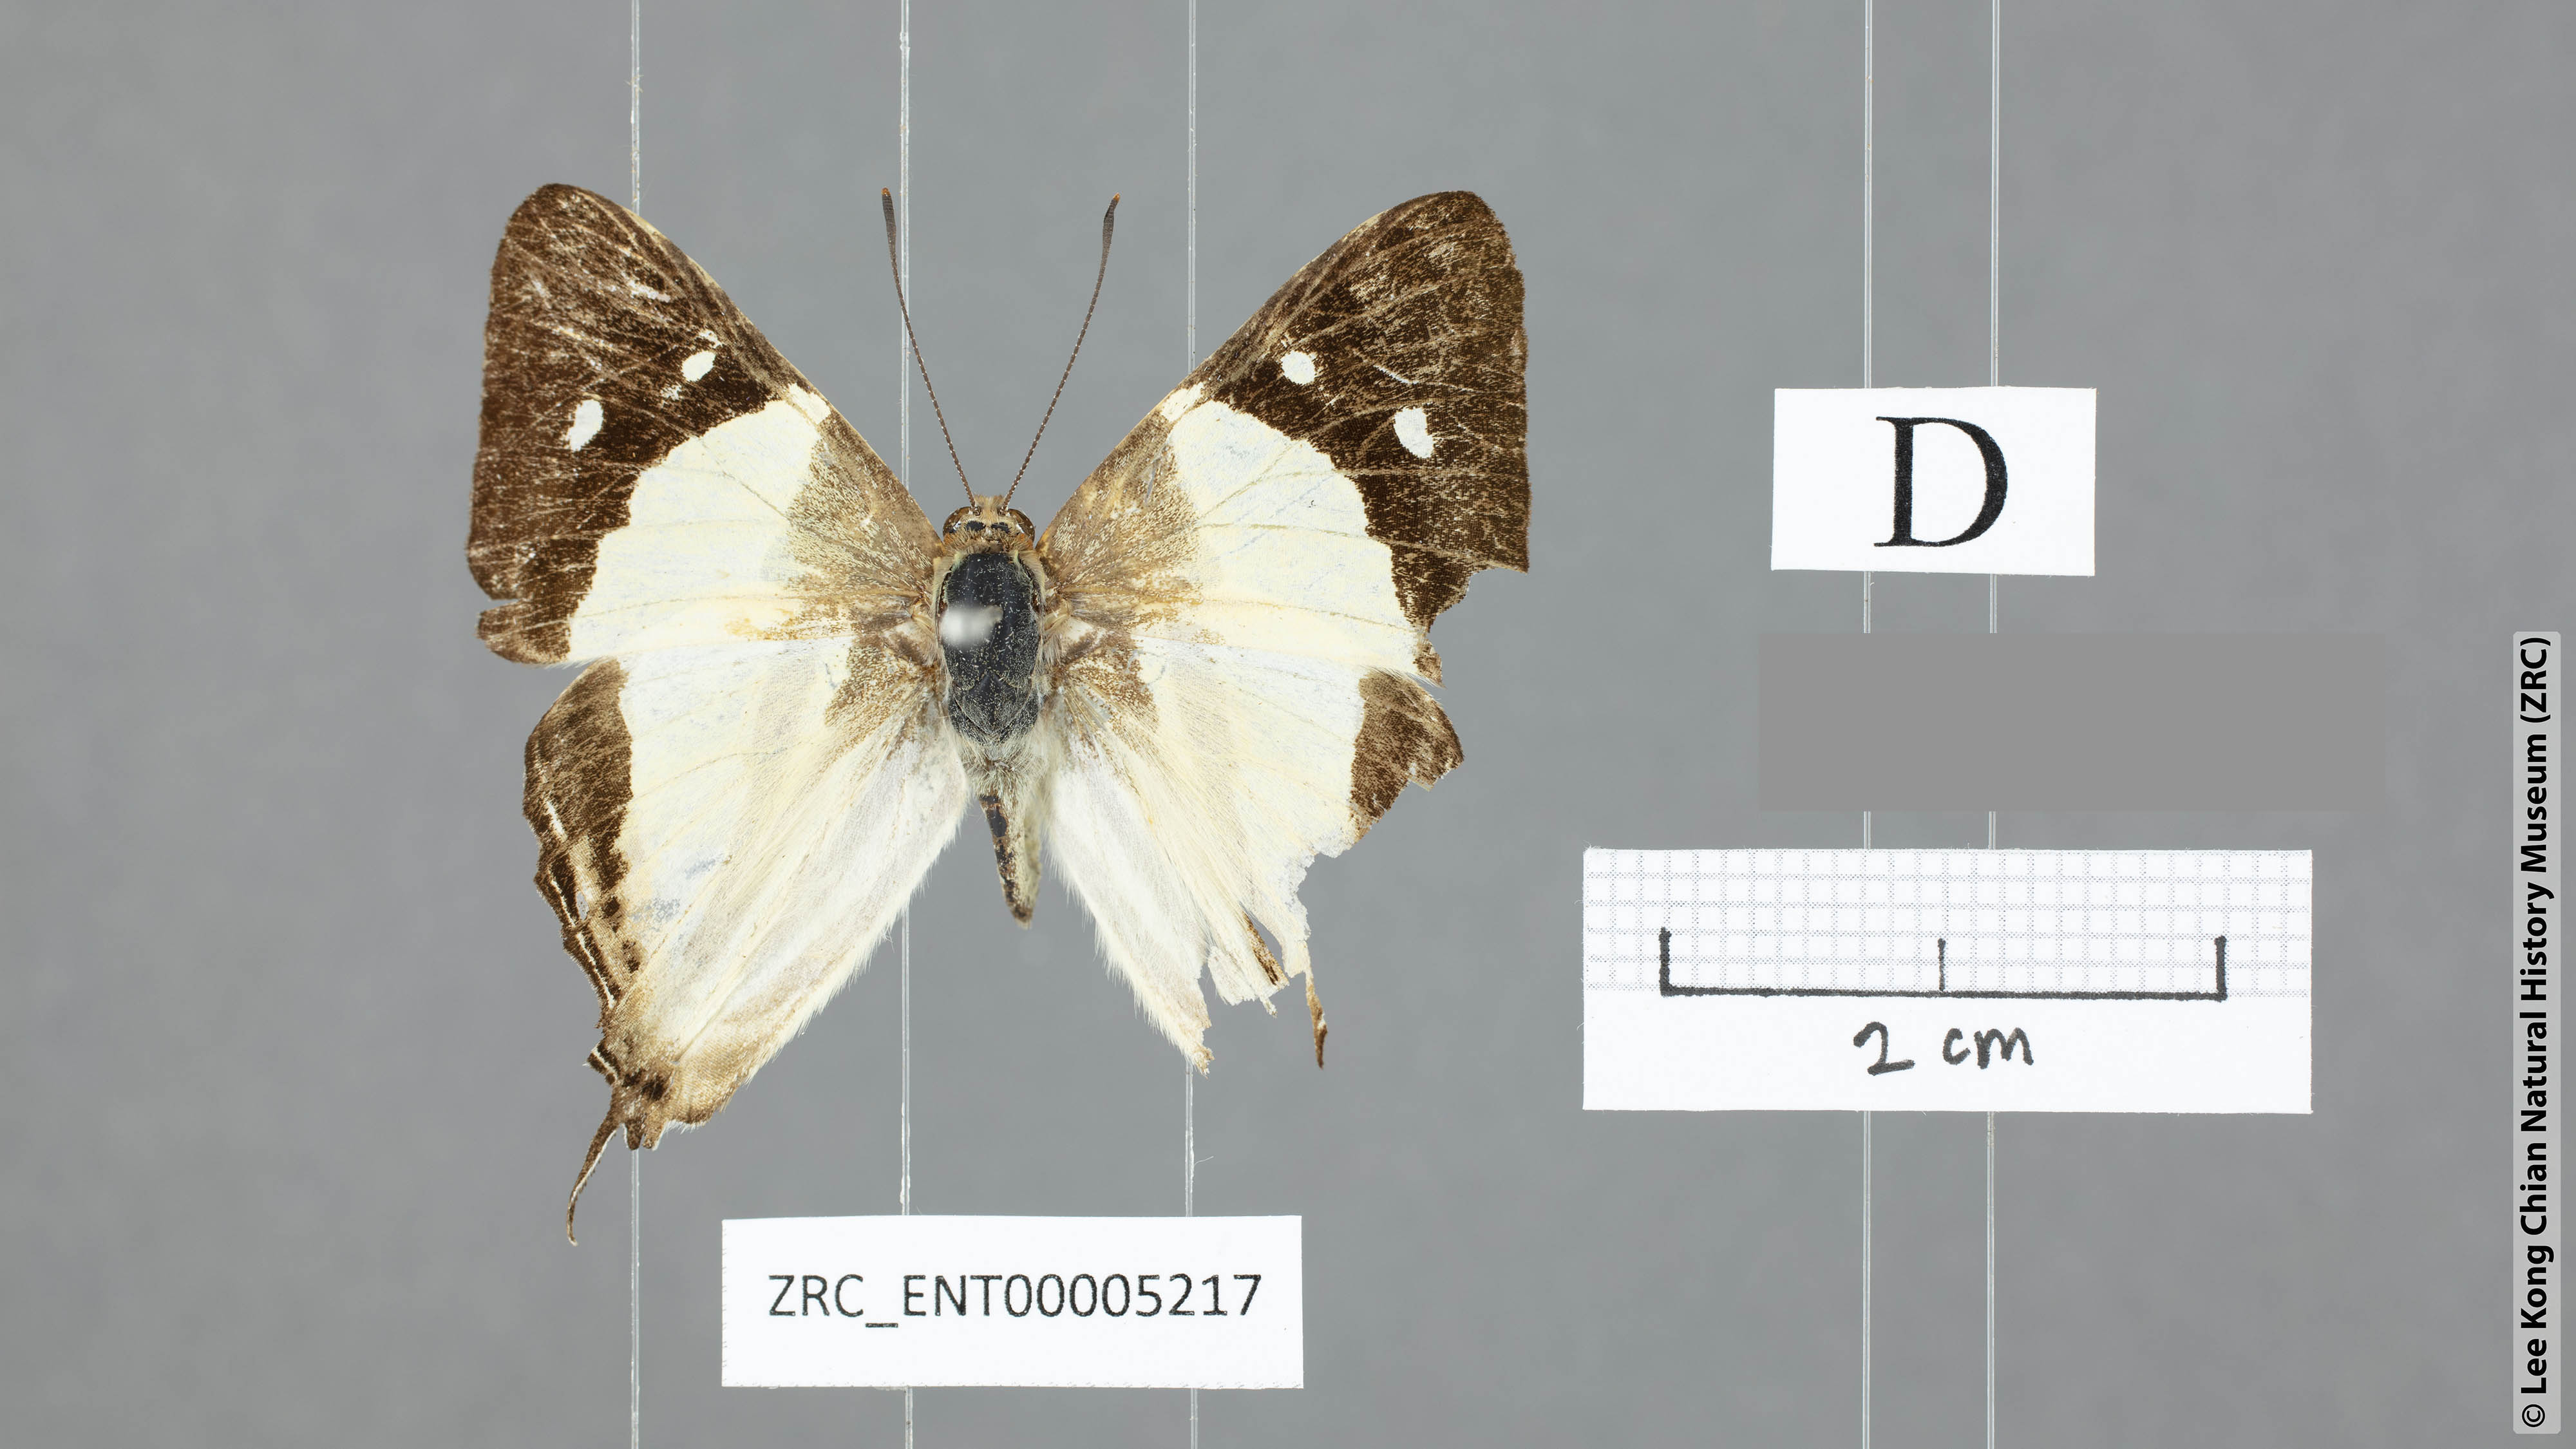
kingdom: Animalia
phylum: Arthropoda
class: Insecta
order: Lepidoptera
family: Lycaenidae
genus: Dodona
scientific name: Dodona deodata
